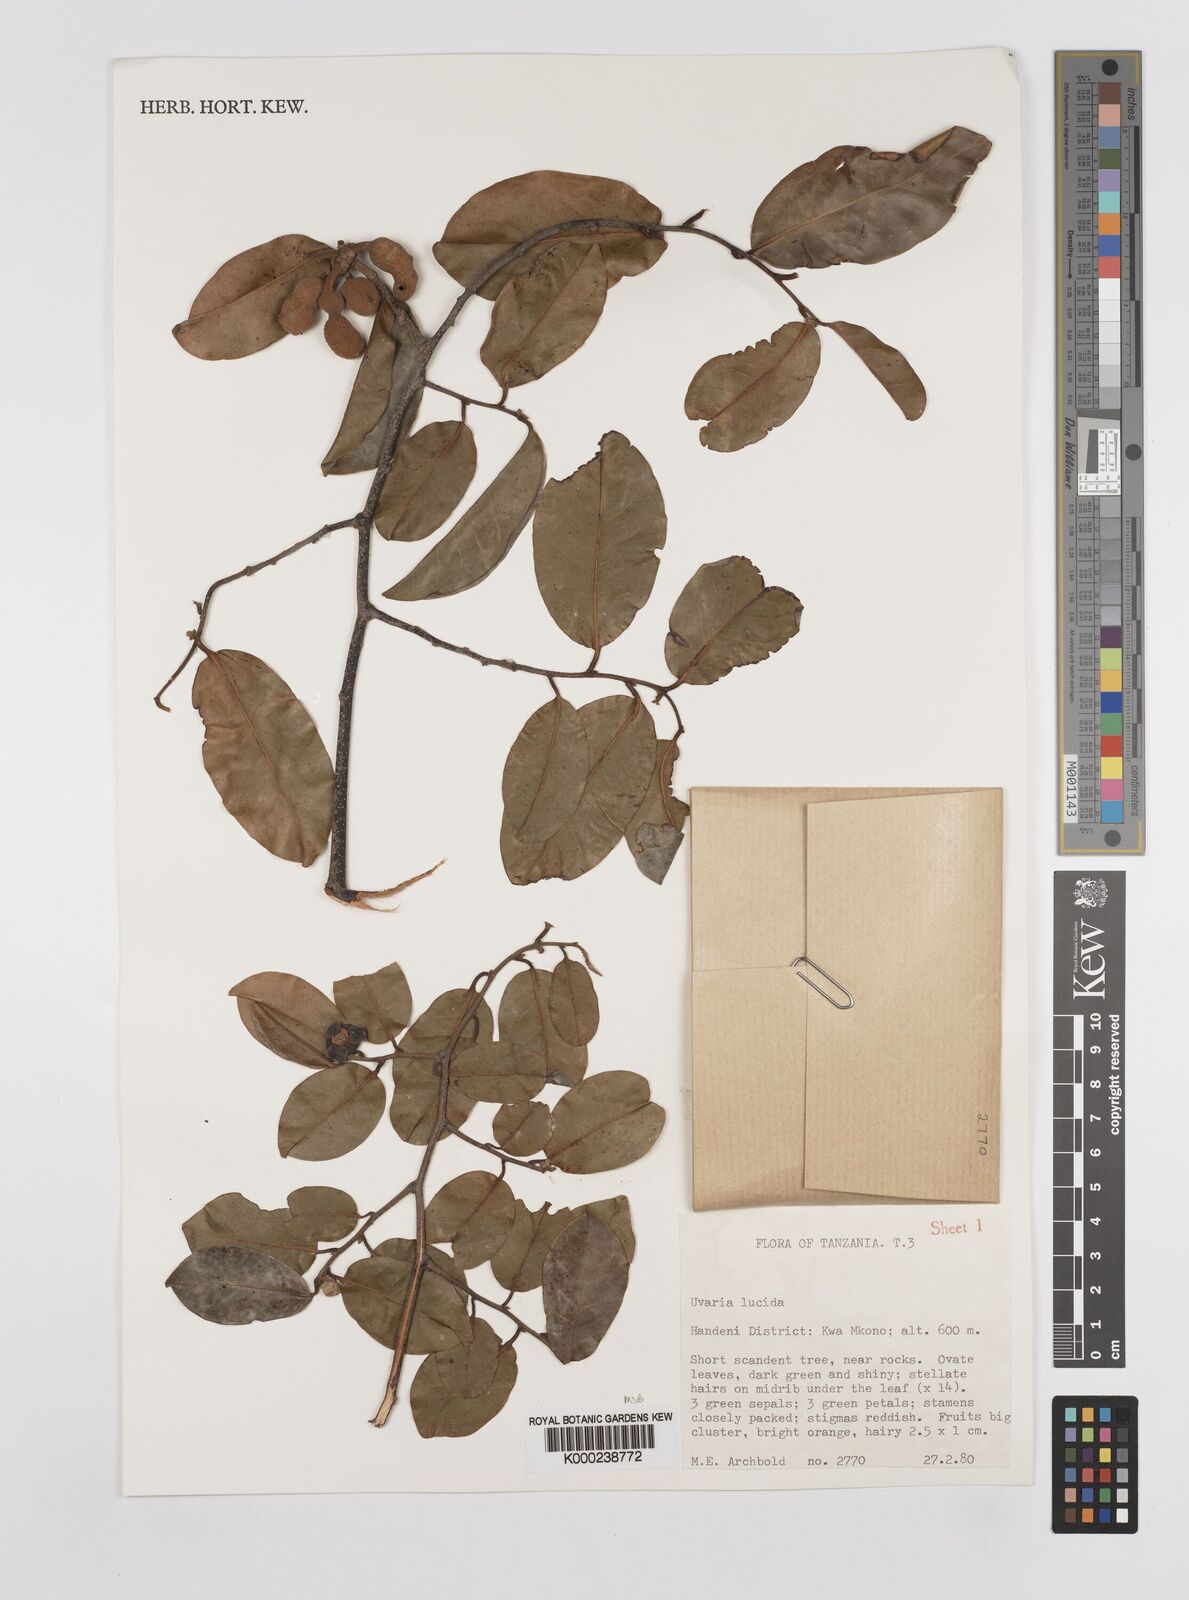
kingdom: Plantae
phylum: Tracheophyta
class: Magnoliopsida
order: Magnoliales
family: Annonaceae
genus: Uvaria
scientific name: Uvaria lucida
